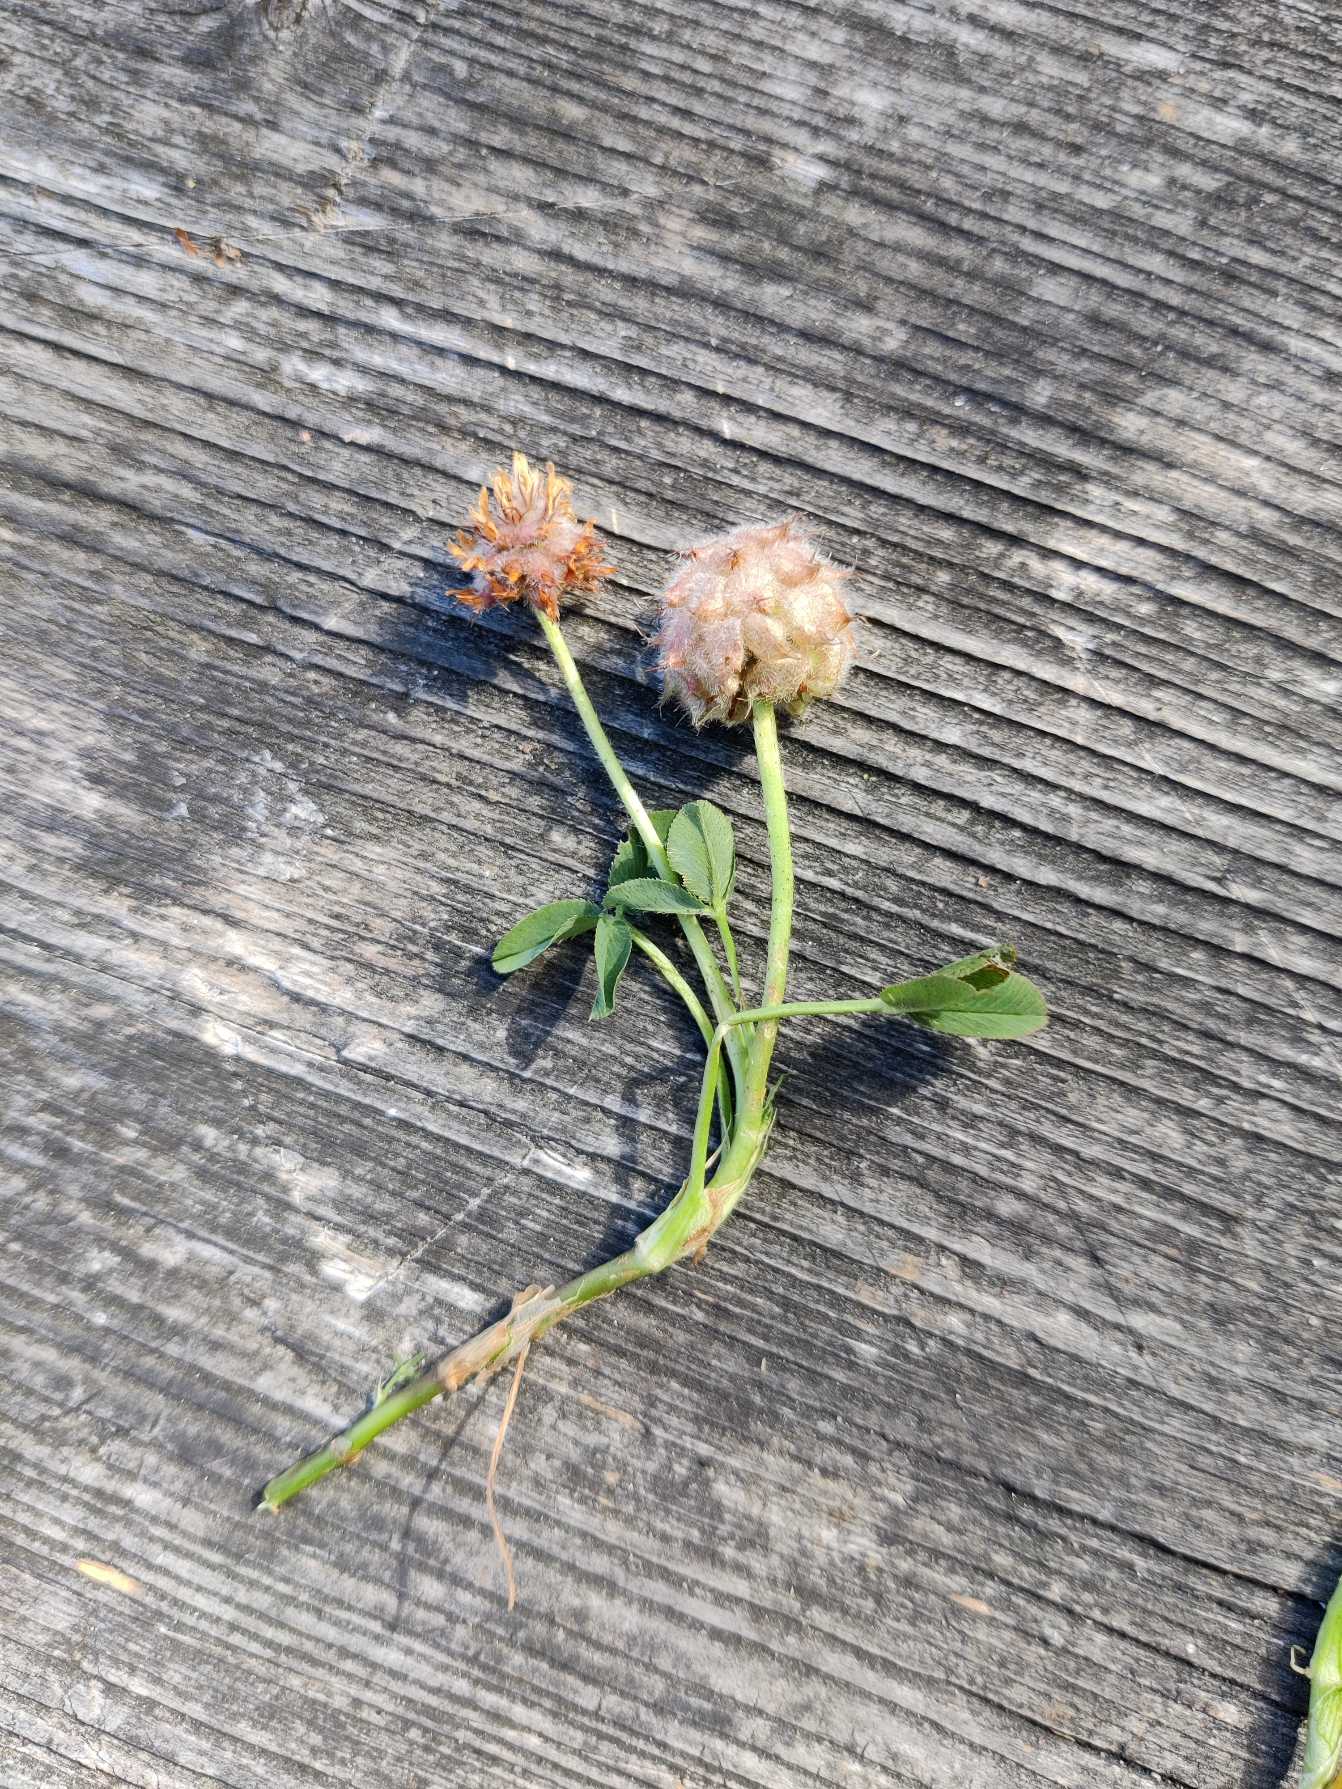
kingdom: Plantae
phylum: Tracheophyta
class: Magnoliopsida
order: Fabales
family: Fabaceae
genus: Trifolium
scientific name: Trifolium fragiferum
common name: Jordbær-kløver
